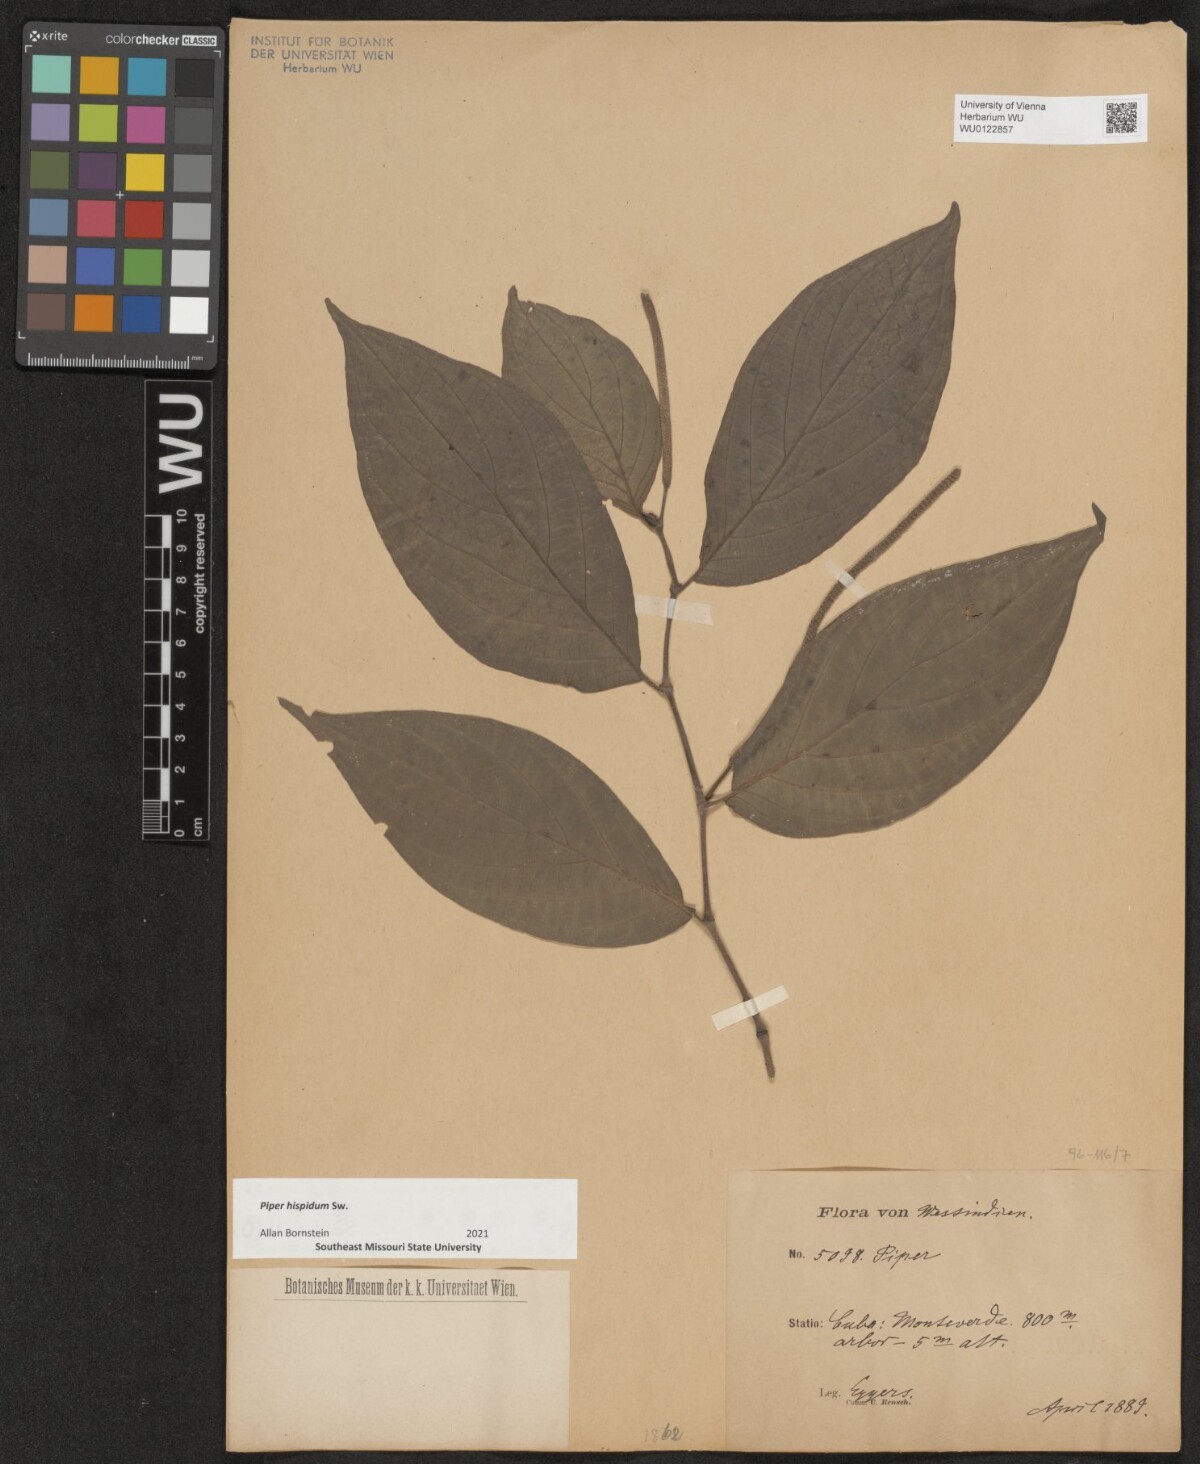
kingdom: Plantae
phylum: Tracheophyta
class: Magnoliopsida
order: Piperales
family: Piperaceae
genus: Piper
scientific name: Piper hispidum
